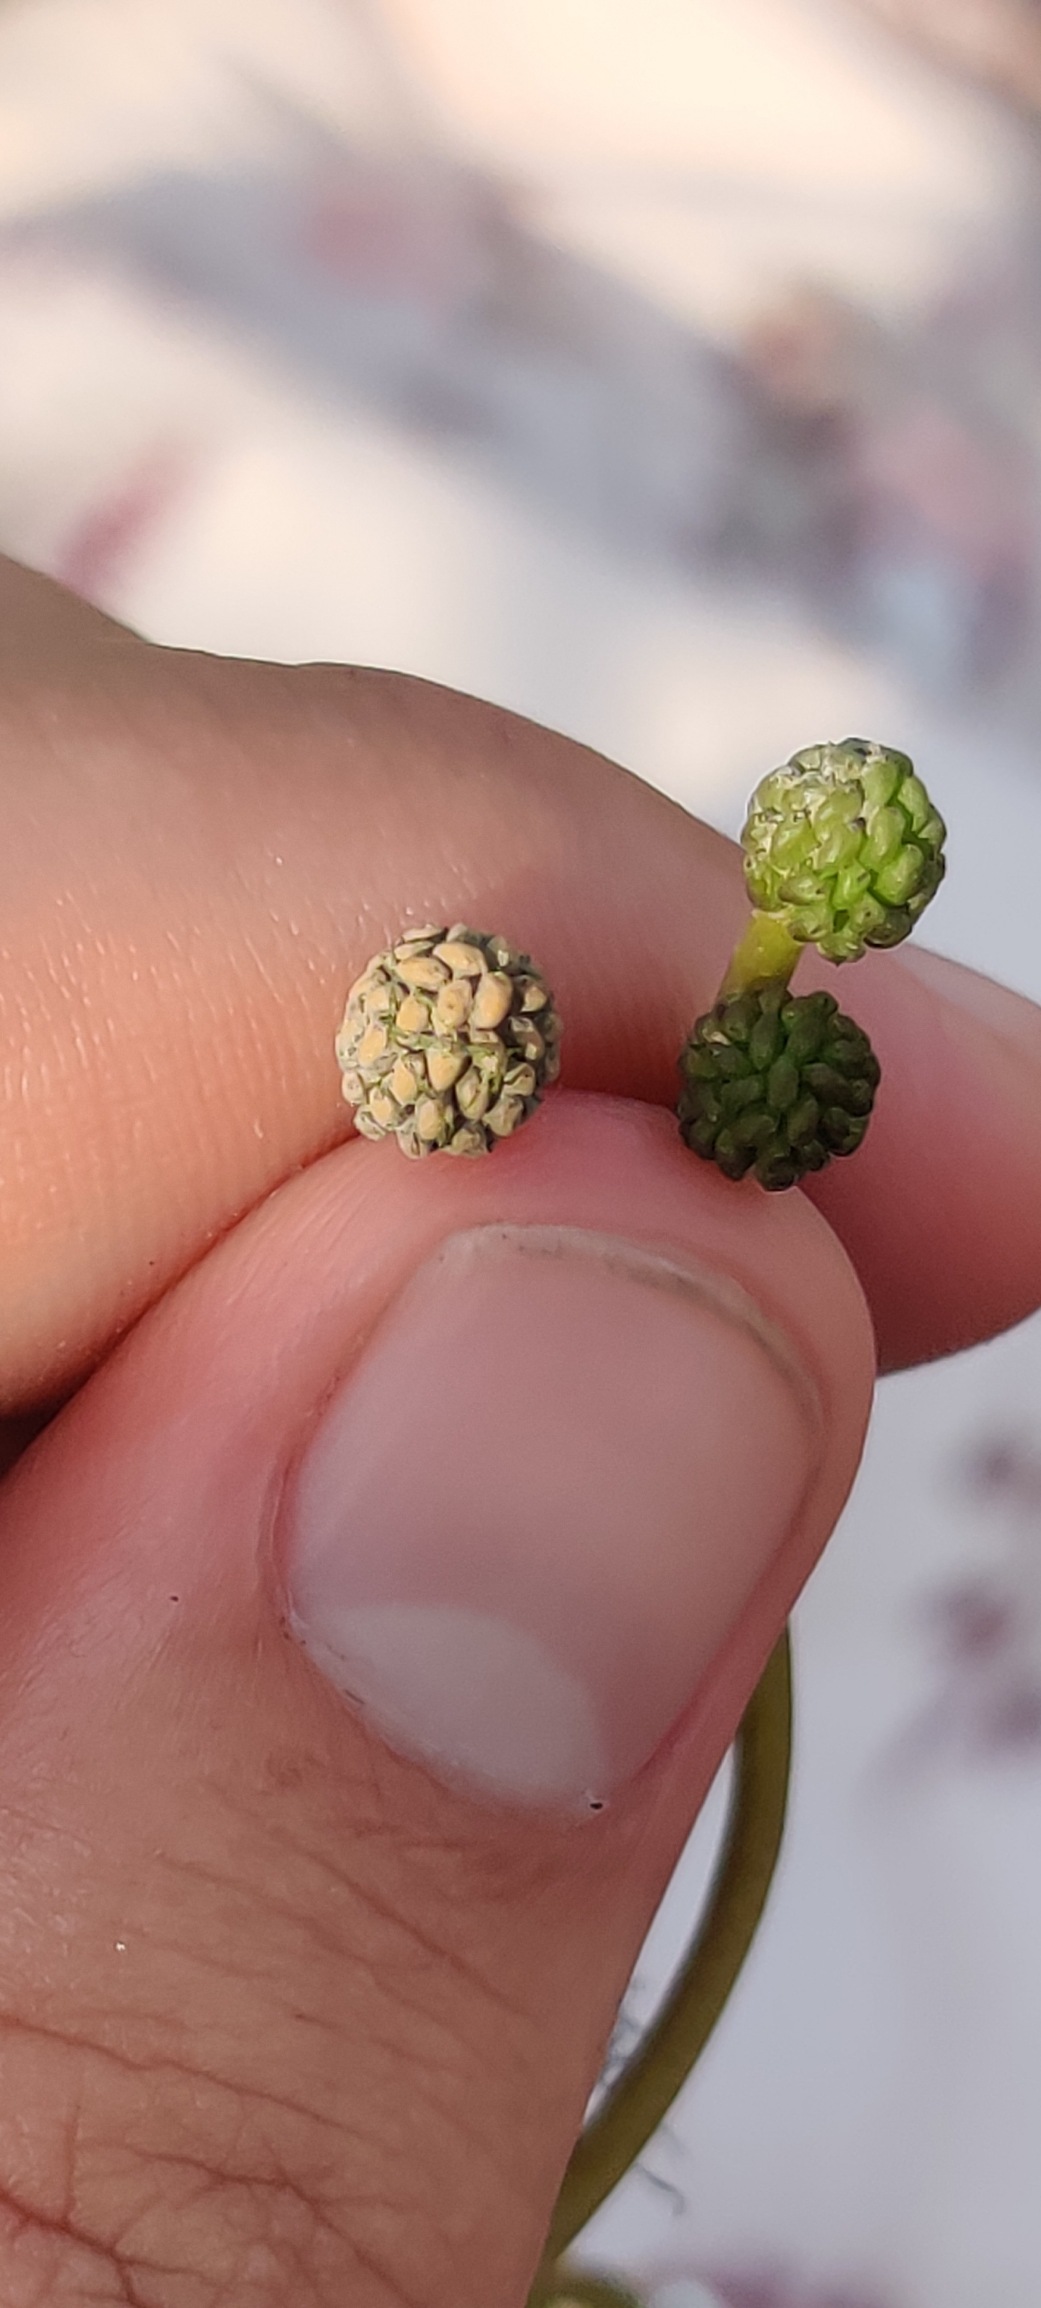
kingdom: Plantae
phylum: Tracheophyta
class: Magnoliopsida
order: Ranunculales
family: Ranunculaceae
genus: Ranunculus
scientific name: Ranunculus peltatus
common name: Strand-vandranunkel
